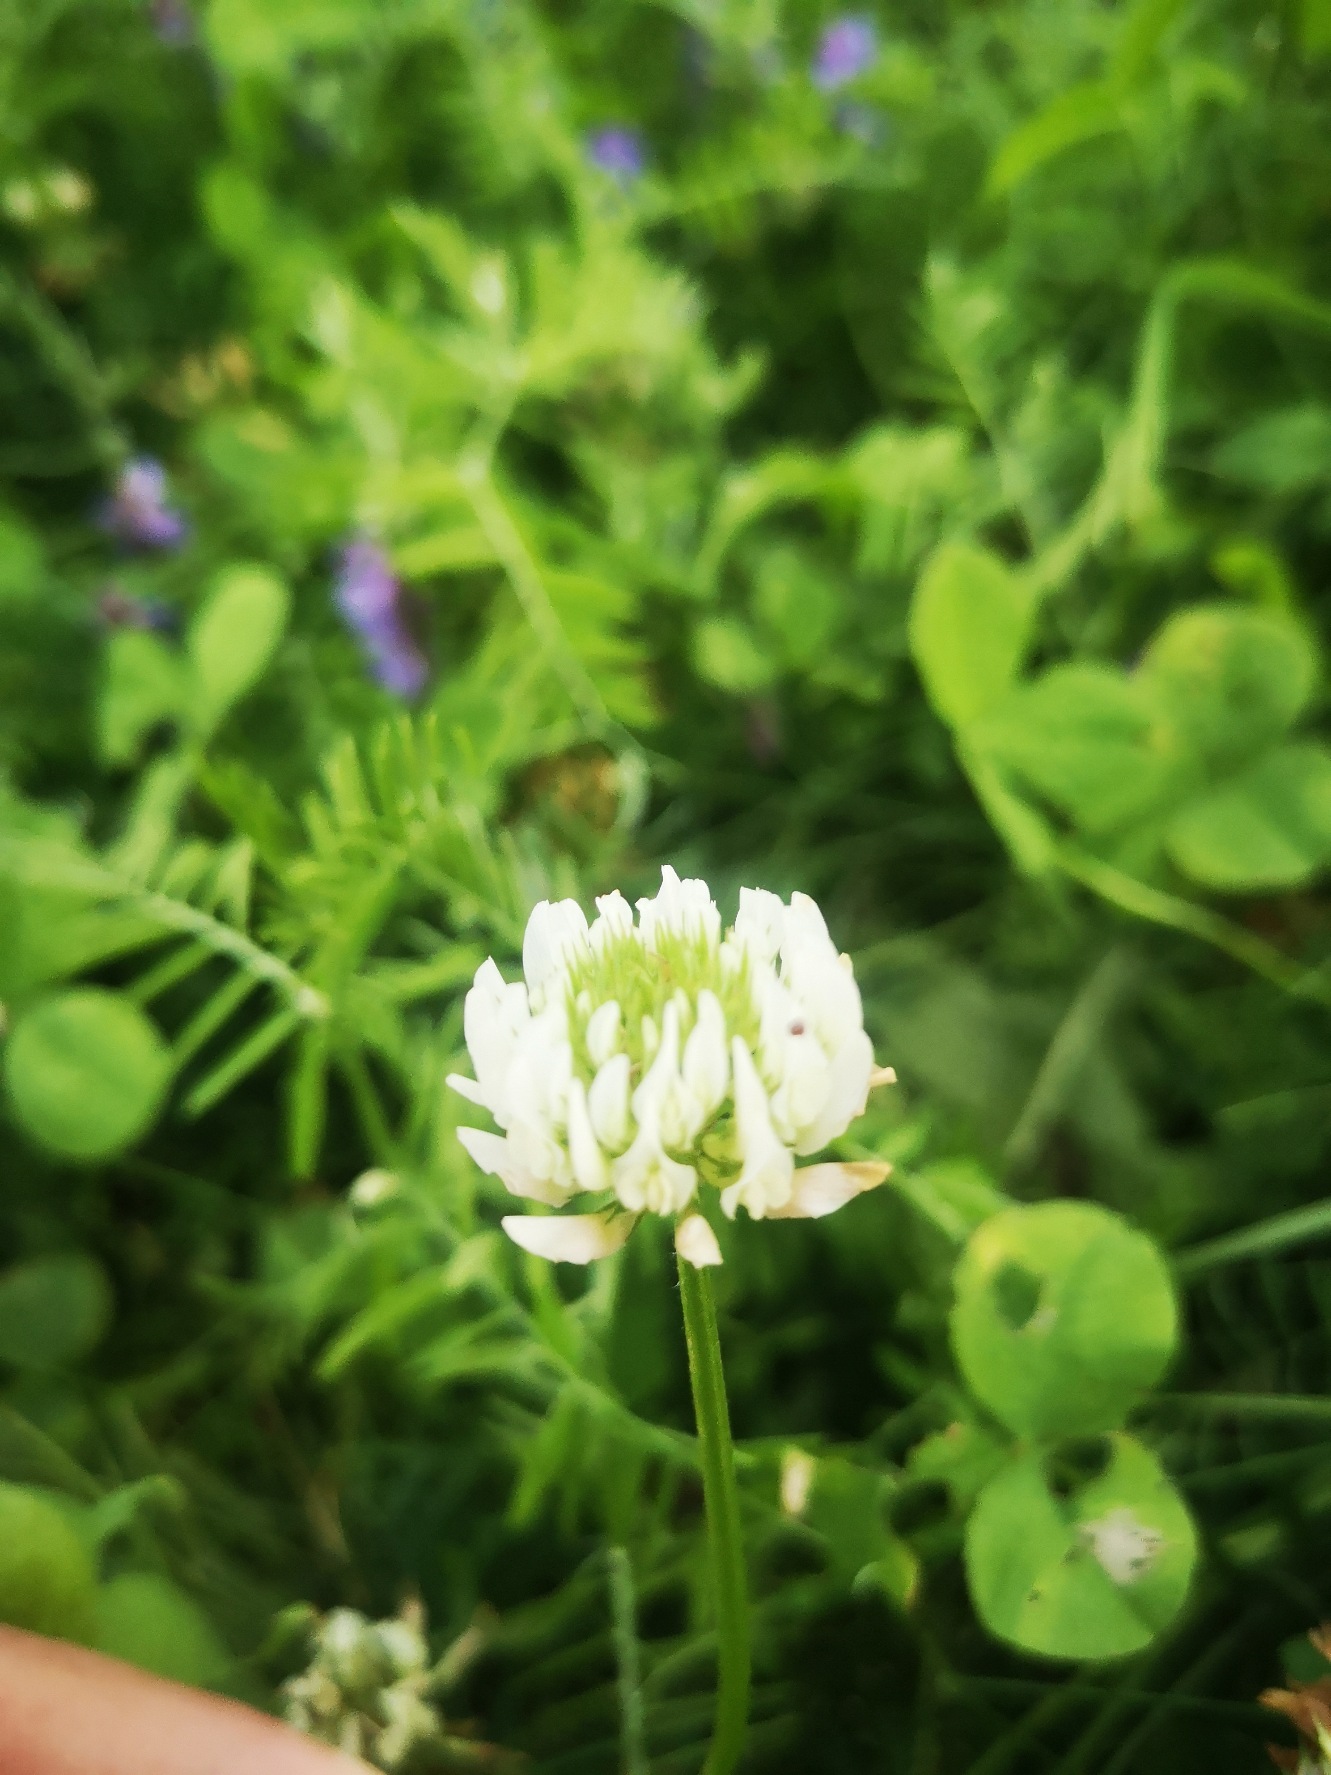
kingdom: Plantae
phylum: Tracheophyta
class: Magnoliopsida
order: Fabales
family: Fabaceae
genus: Trifolium
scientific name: Trifolium repens
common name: Hvid-kløver
